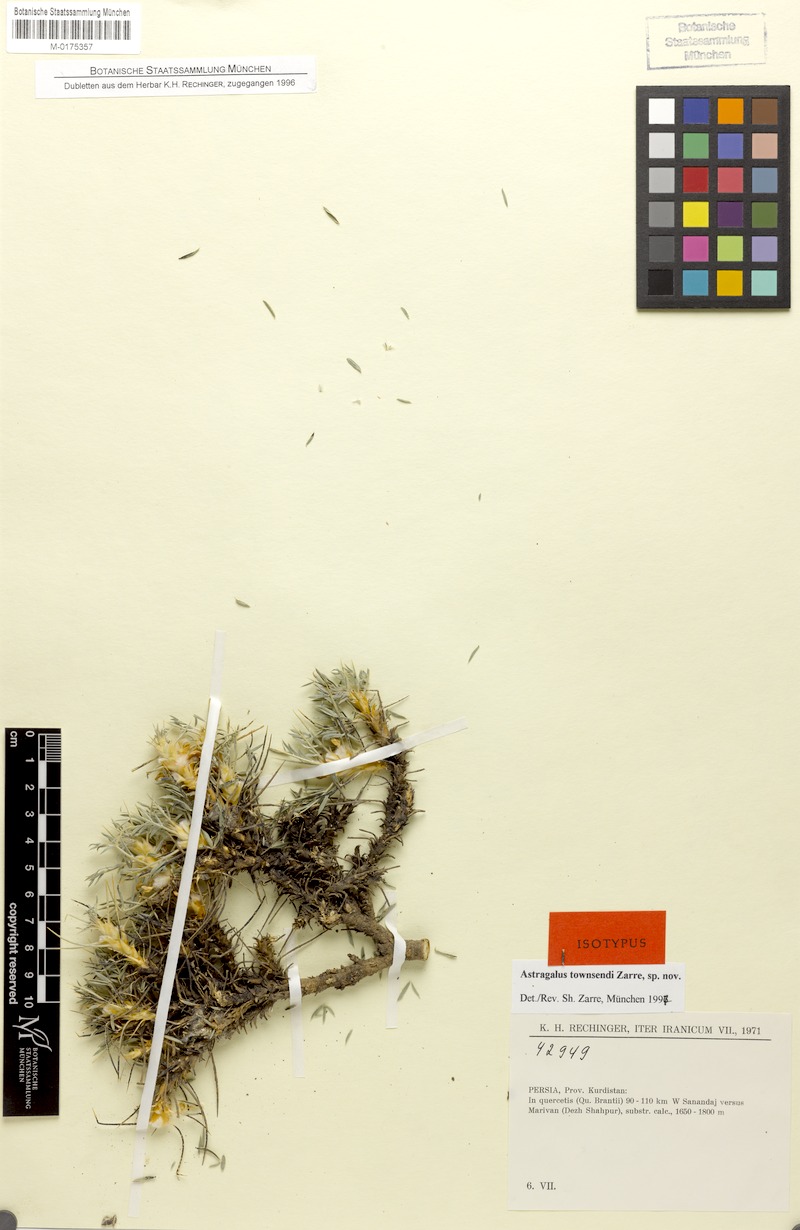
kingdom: Plantae
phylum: Tracheophyta
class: Magnoliopsida
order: Fabales
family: Fabaceae
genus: Astragalus
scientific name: Astragalus townsendii
